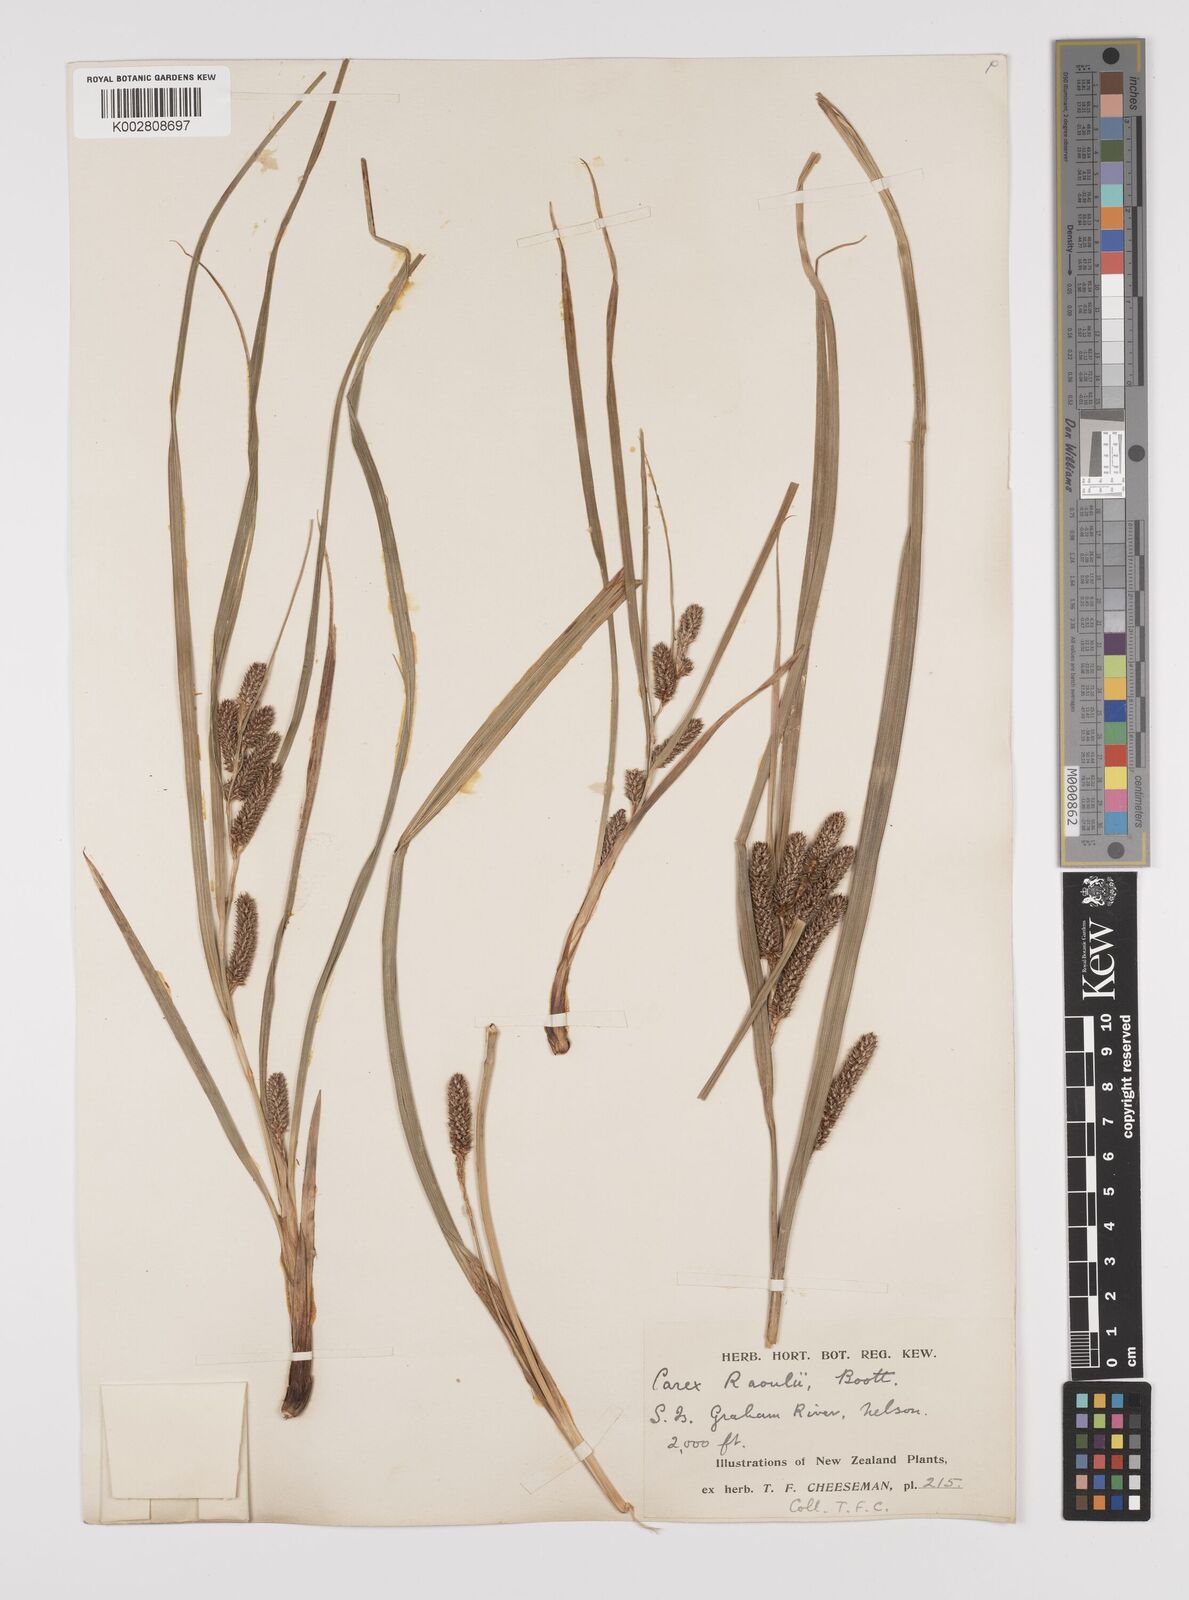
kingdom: Plantae
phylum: Tracheophyta
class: Liliopsida
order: Poales
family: Cyperaceae
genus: Carex
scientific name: Carex goyenii
